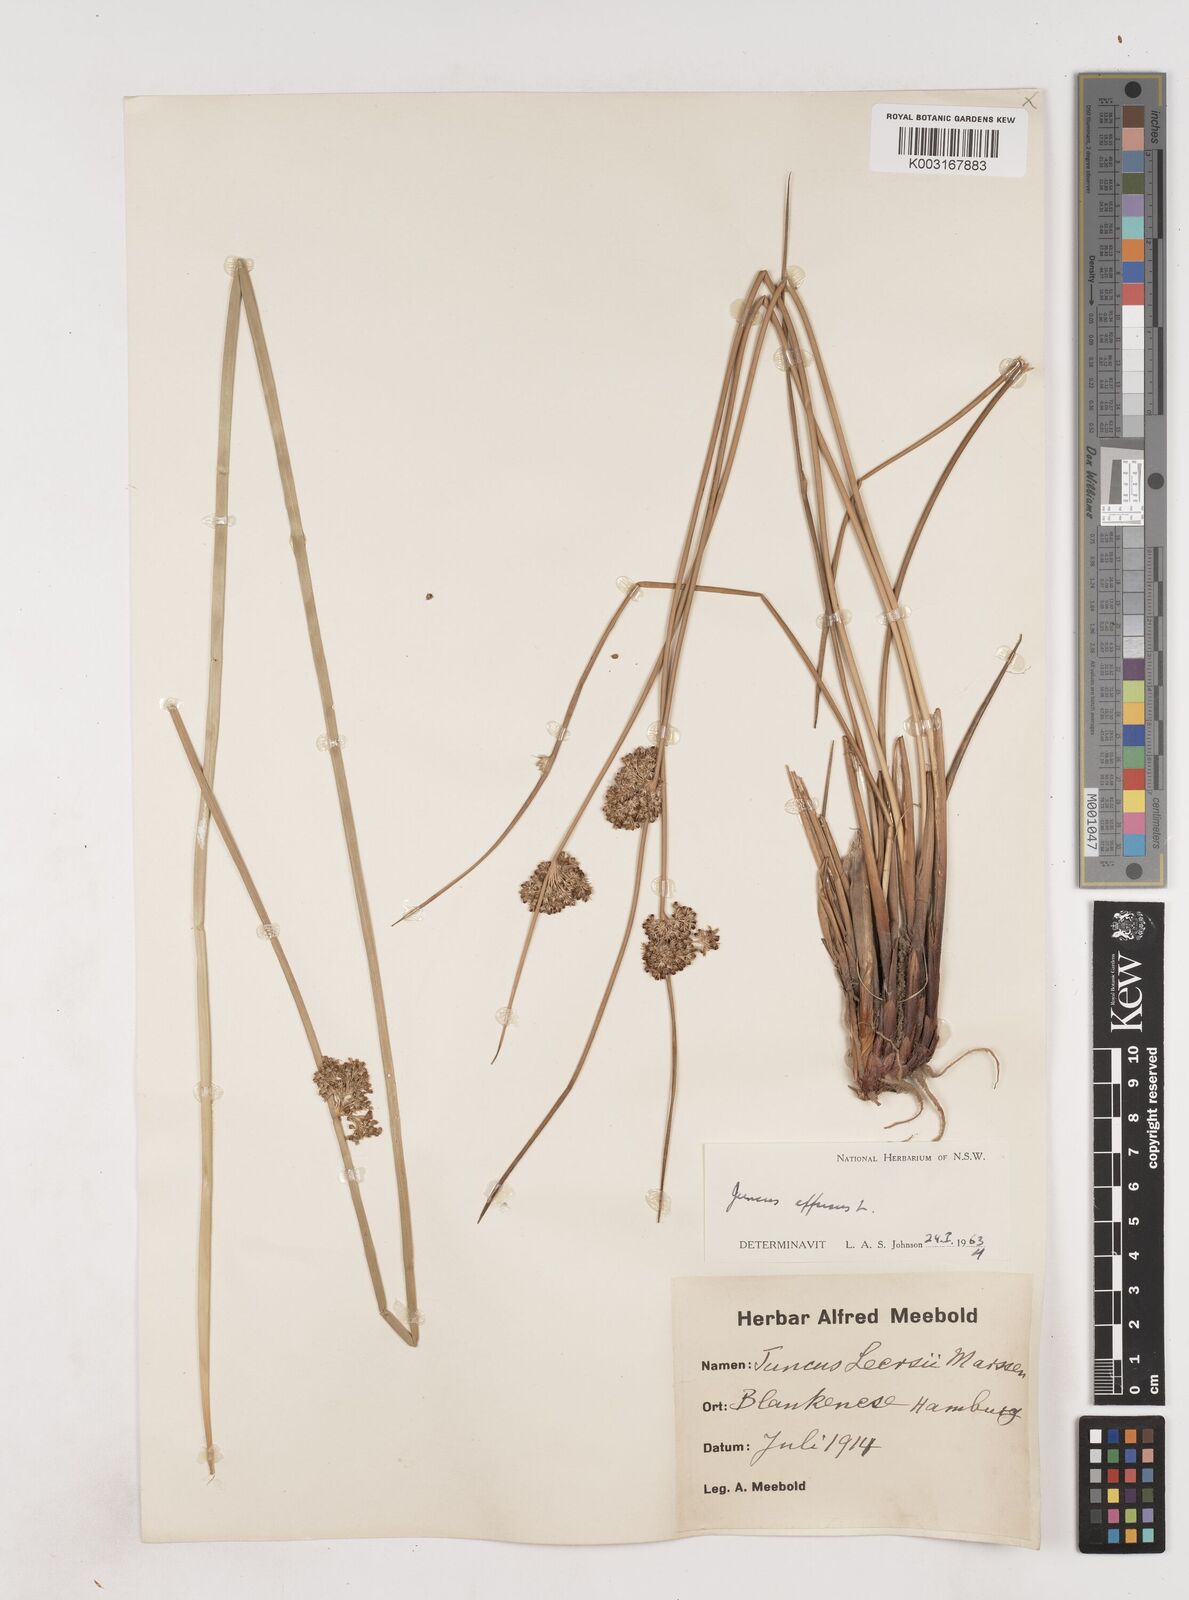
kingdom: Plantae
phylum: Tracheophyta
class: Liliopsida
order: Poales
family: Juncaceae
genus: Juncus
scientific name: Juncus effusus
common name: Soft rush
